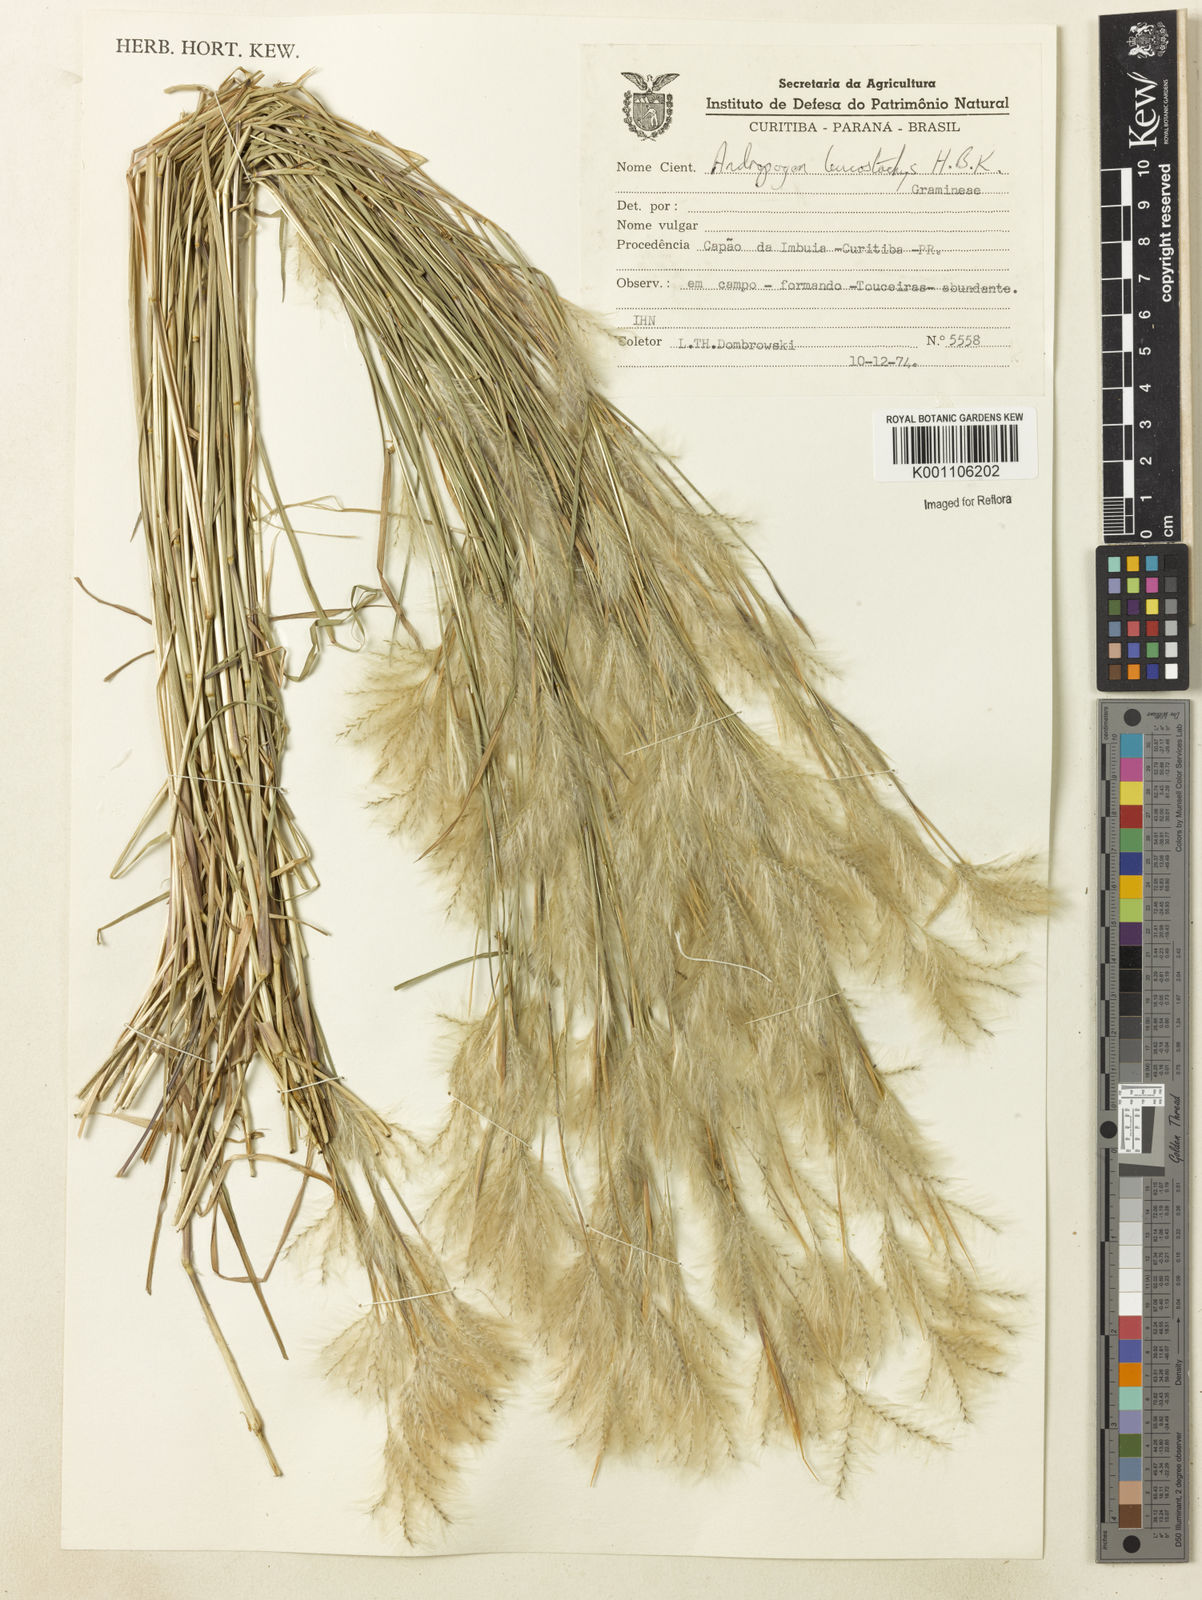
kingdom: Plantae
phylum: Tracheophyta
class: Liliopsida
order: Poales
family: Poaceae
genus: Andropogon
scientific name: Andropogon leucostachyus
